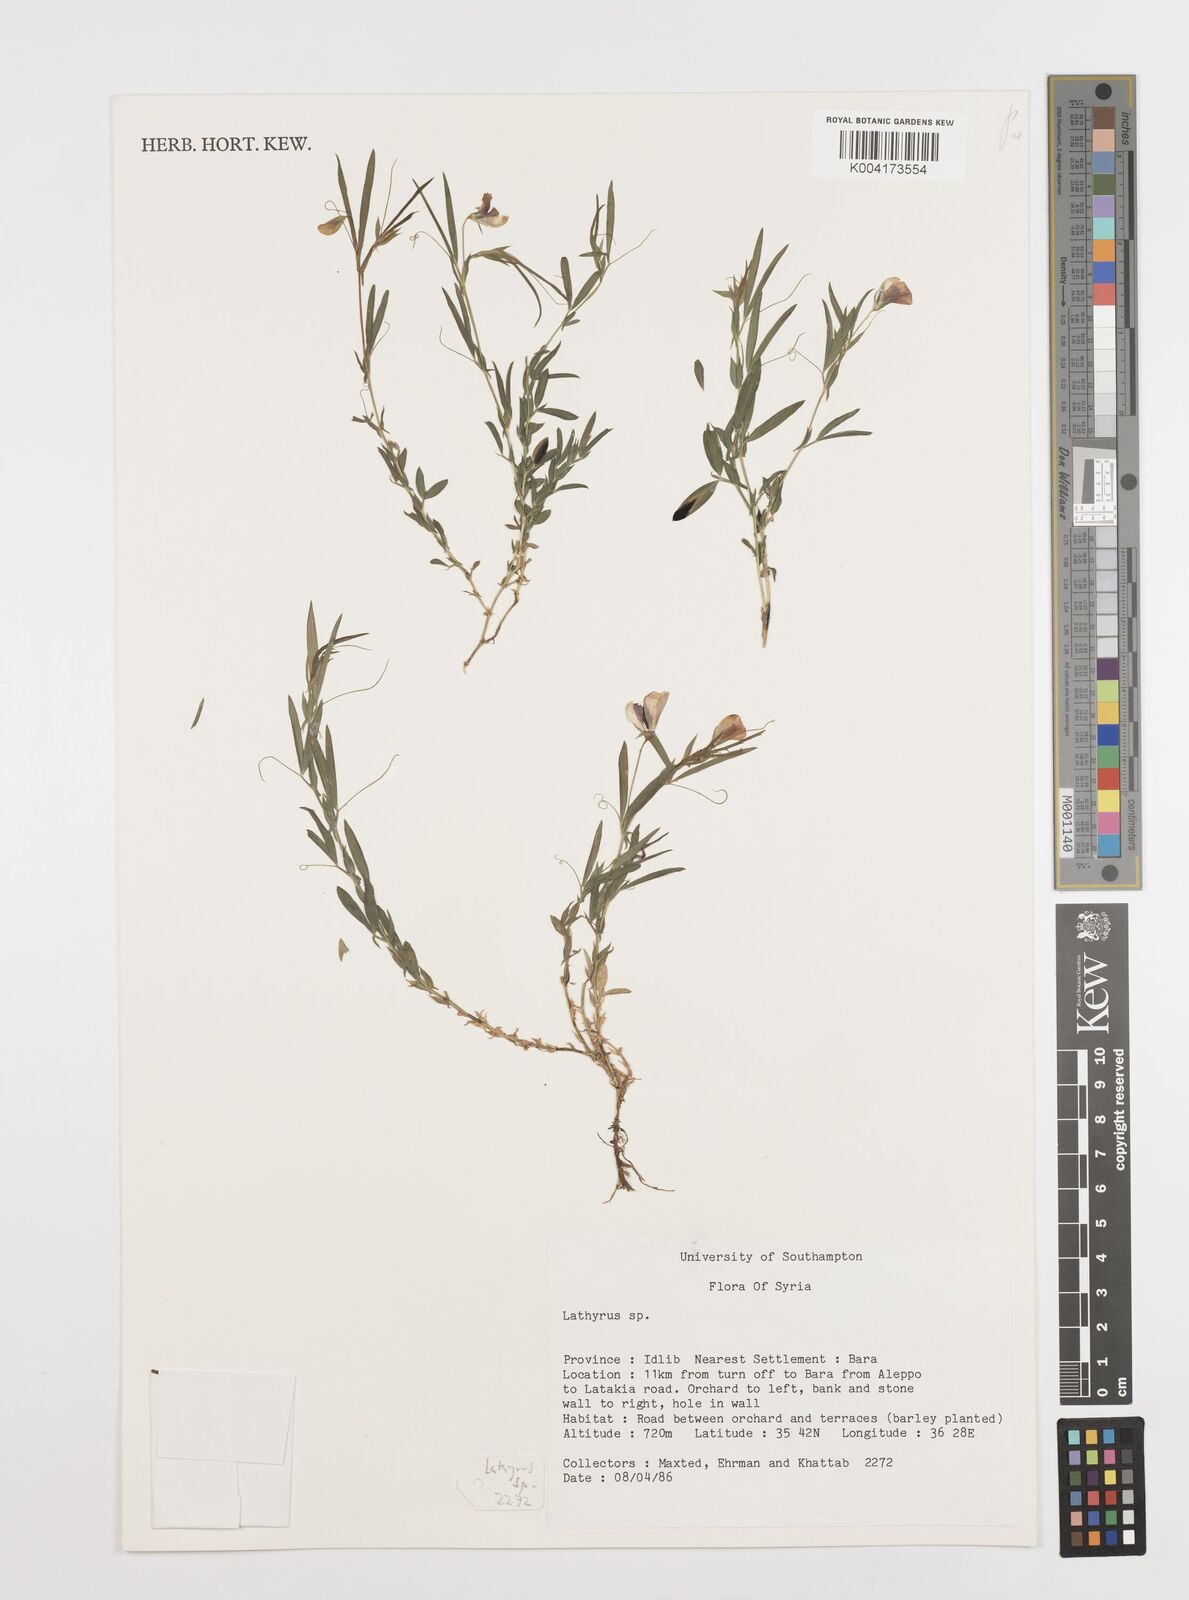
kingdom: Plantae
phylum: Tracheophyta
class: Magnoliopsida
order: Fabales
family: Fabaceae
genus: Lathyrus
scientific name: Lathyrus
